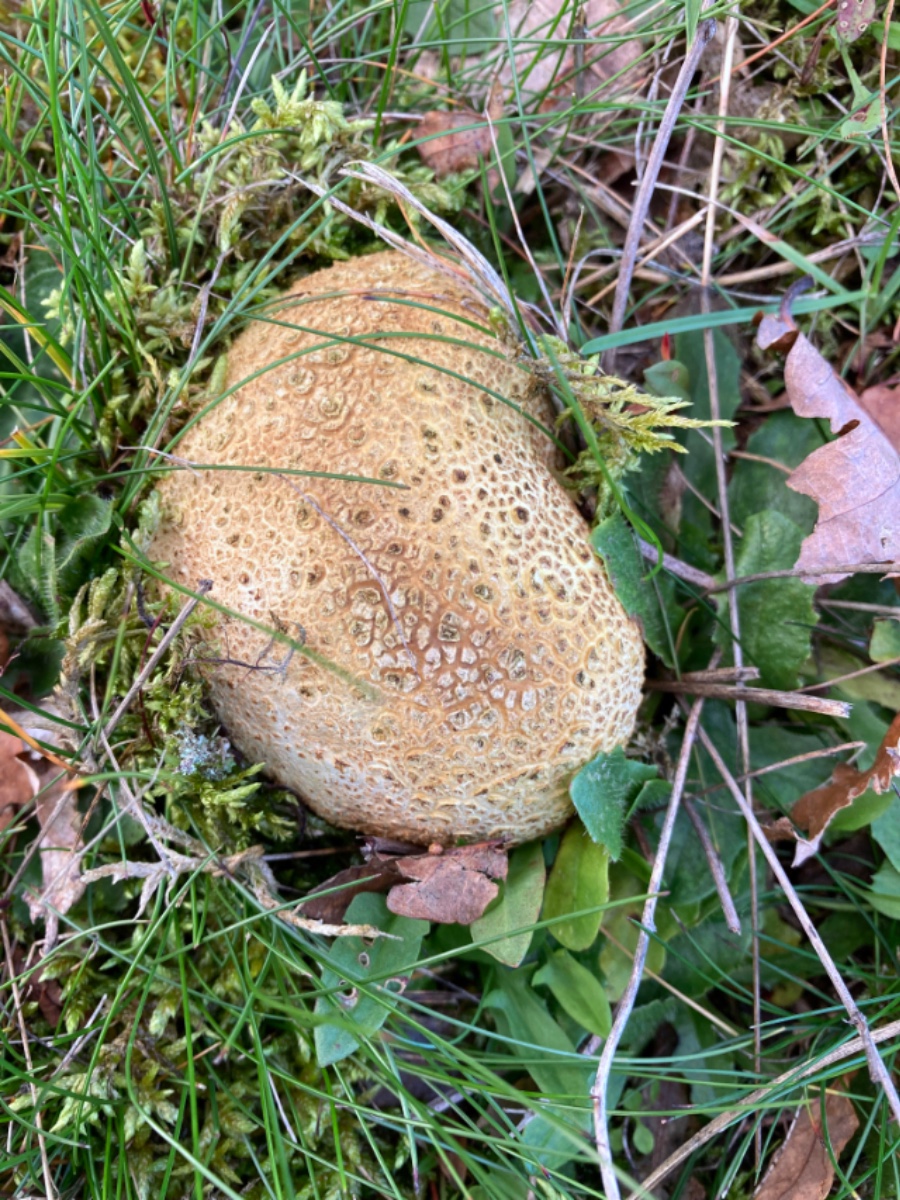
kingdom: Fungi
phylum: Basidiomycota
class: Agaricomycetes
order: Boletales
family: Sclerodermataceae
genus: Scleroderma
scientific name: Scleroderma citrinum
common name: almindelig bruskbold
